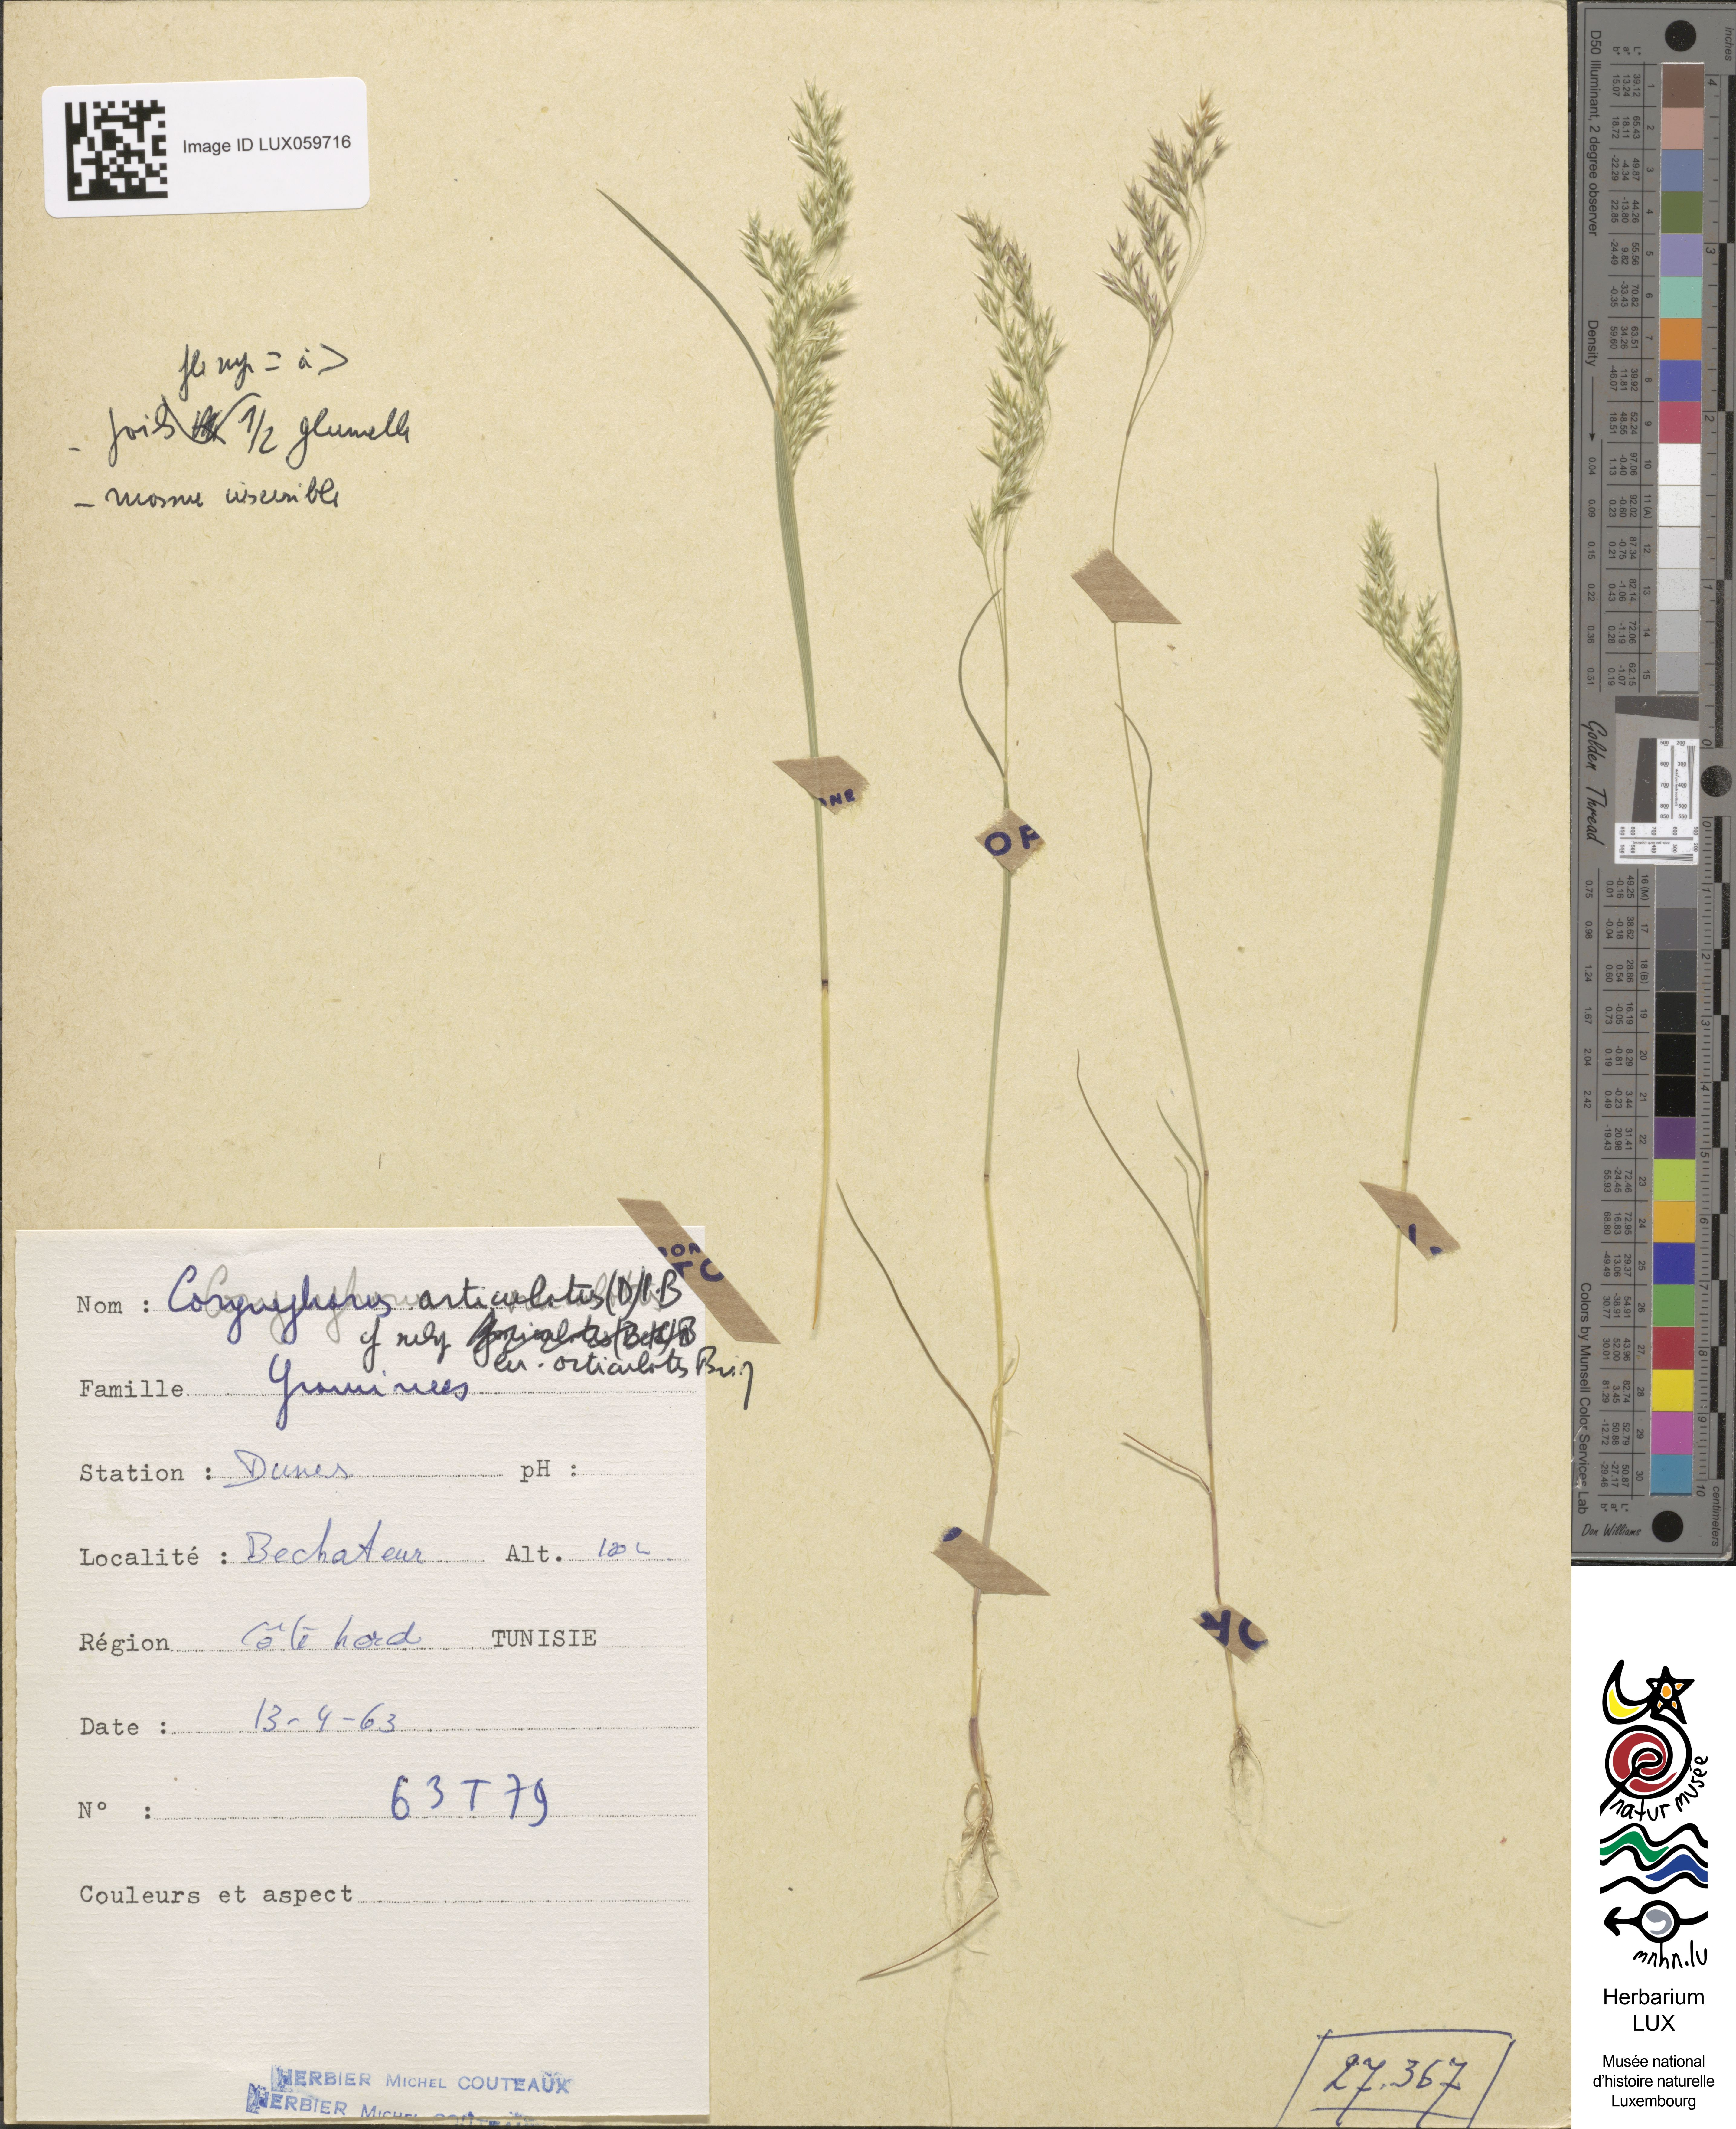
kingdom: Plantae
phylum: Tracheophyta
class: Liliopsida
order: Poales
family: Poaceae
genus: Corynephorus
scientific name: Corynephorus articulatus
